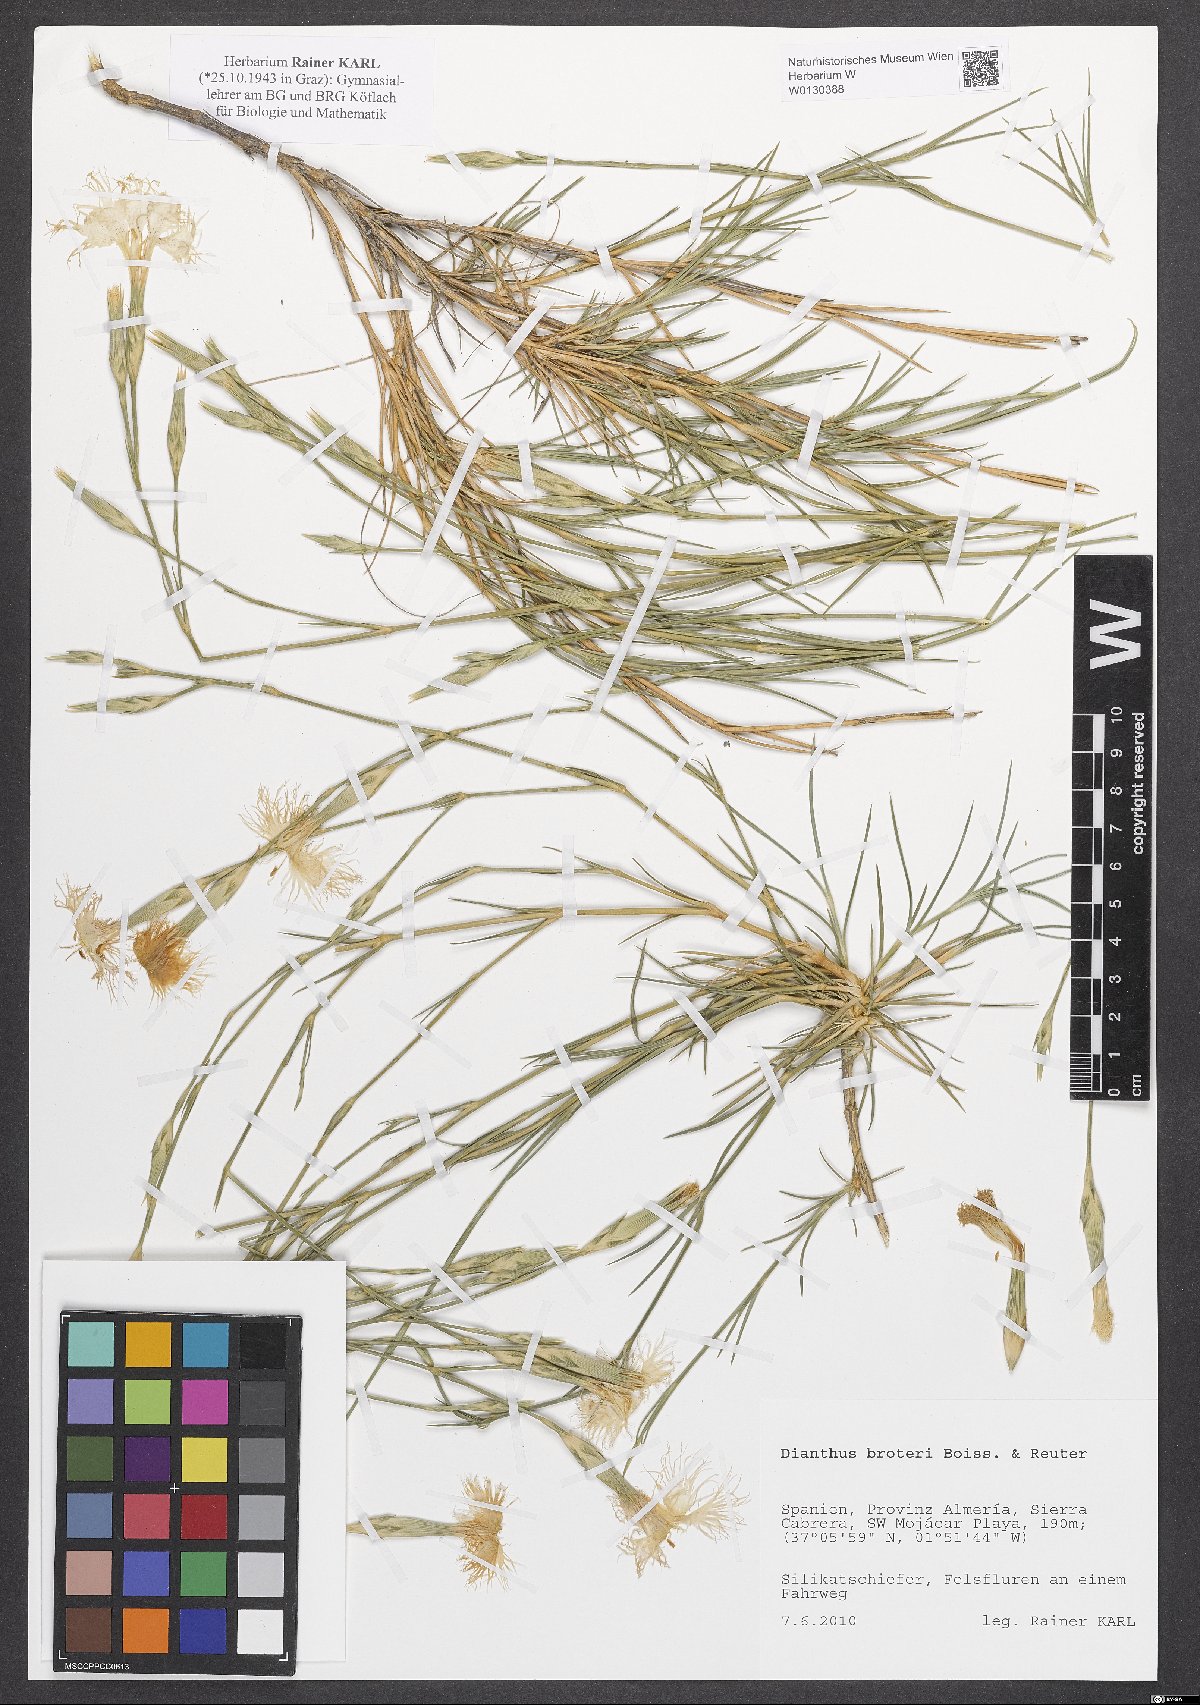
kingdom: Plantae
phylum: Tracheophyta
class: Magnoliopsida
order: Caryophyllales
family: Caryophyllaceae
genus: Dianthus
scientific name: Dianthus broteri
